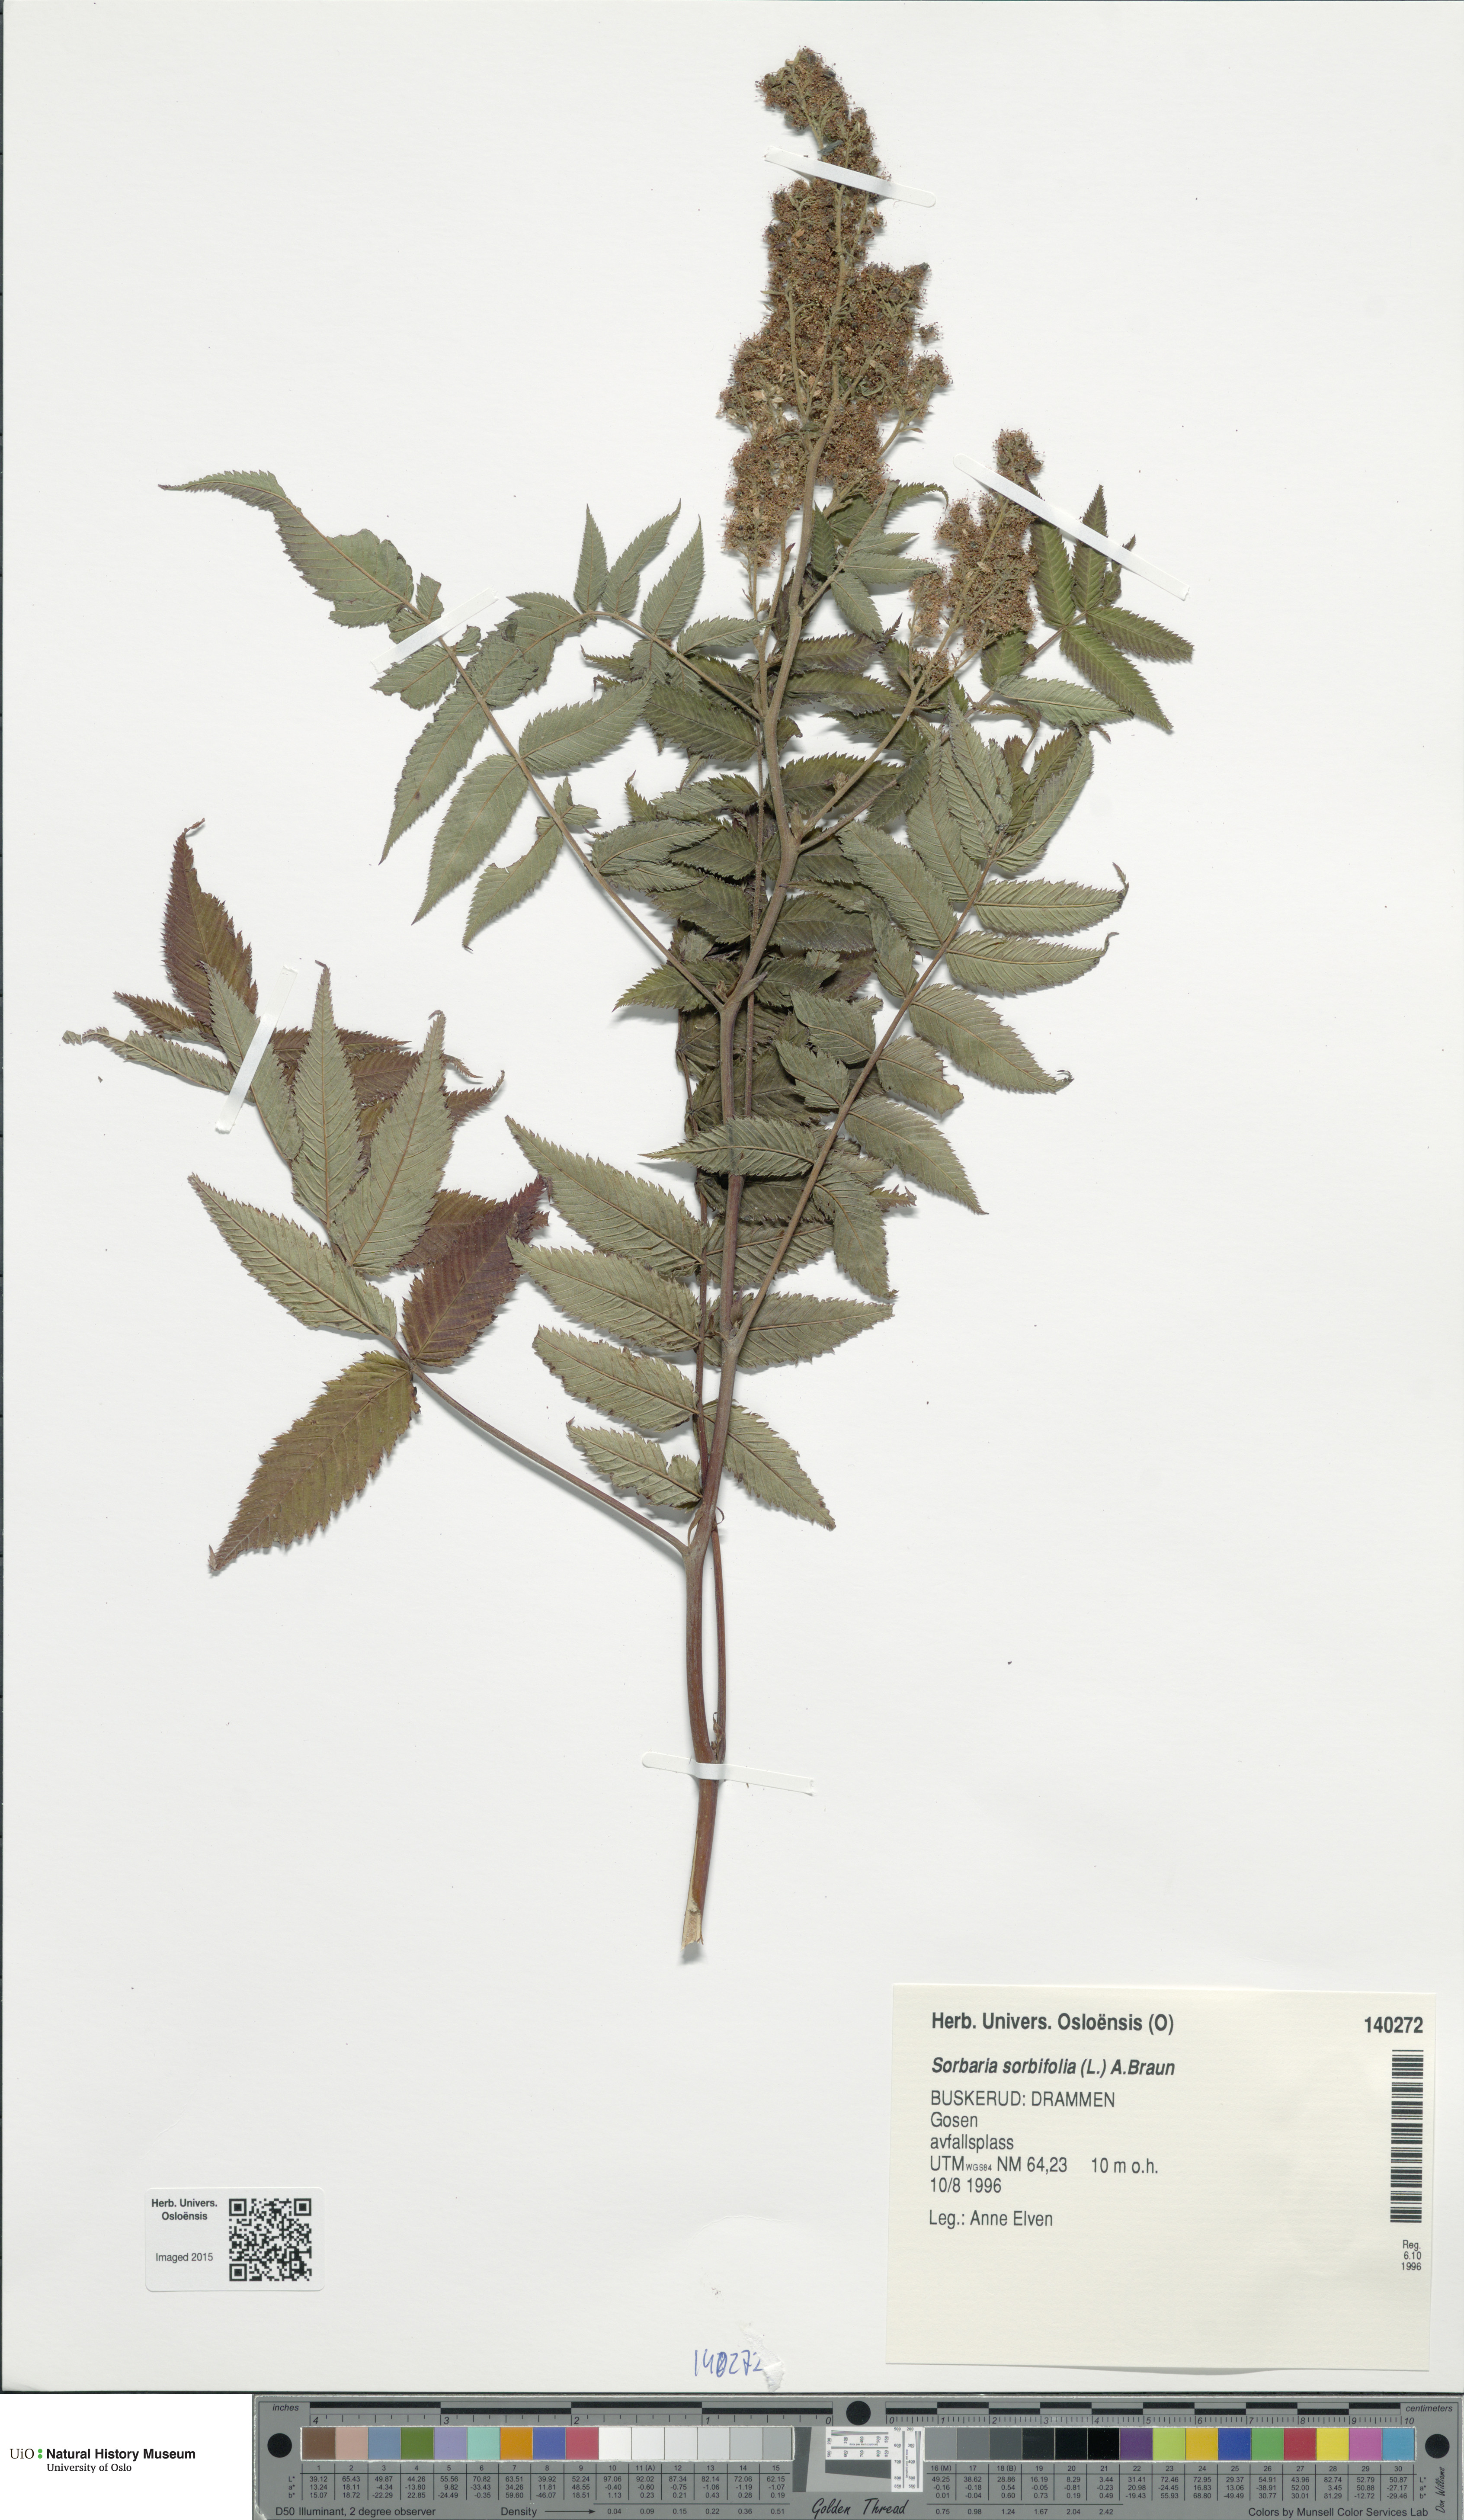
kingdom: Plantae
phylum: Tracheophyta
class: Magnoliopsida
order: Rosales
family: Rosaceae
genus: Sorbaria
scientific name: Sorbaria sorbifolia
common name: False spiraea
